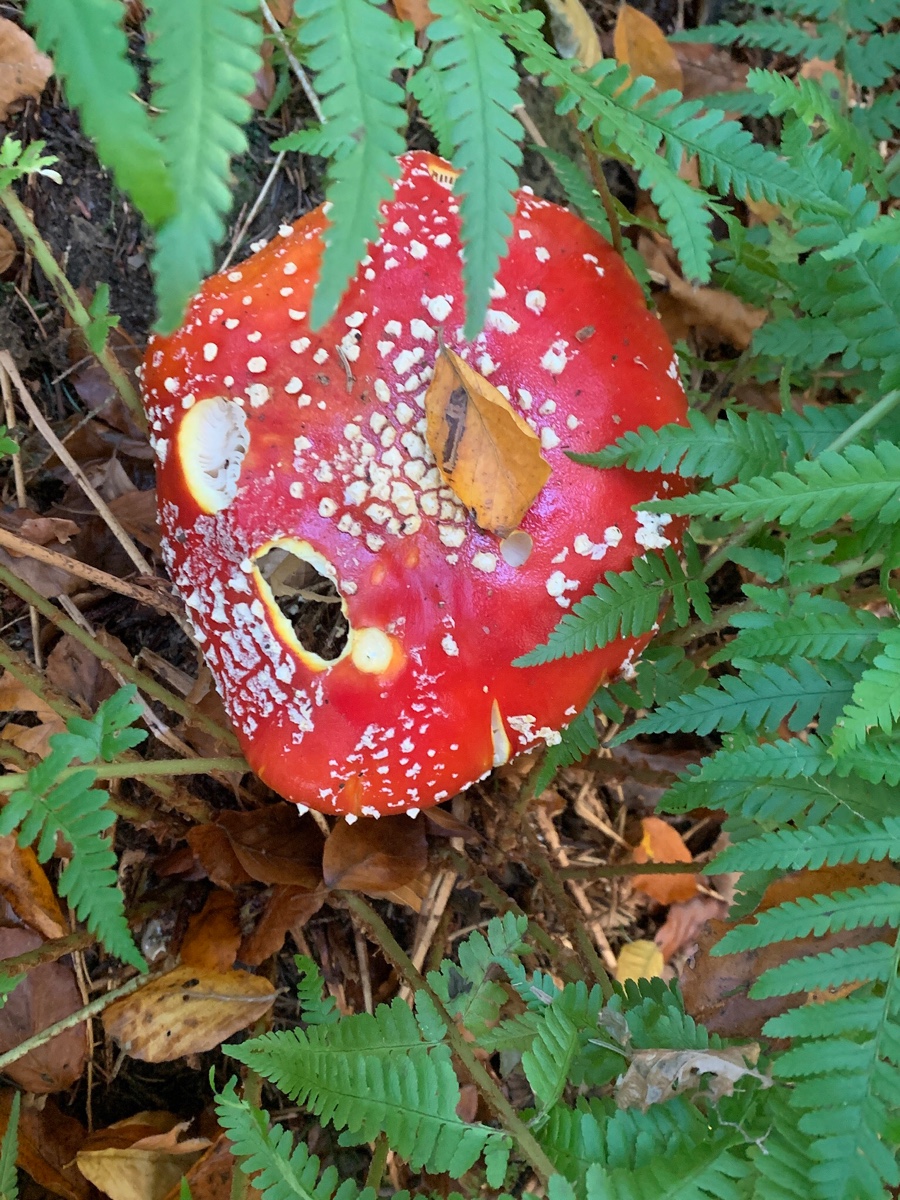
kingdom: Fungi
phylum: Basidiomycota
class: Agaricomycetes
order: Agaricales
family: Amanitaceae
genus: Amanita
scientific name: Amanita muscaria
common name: rød fluesvamp
